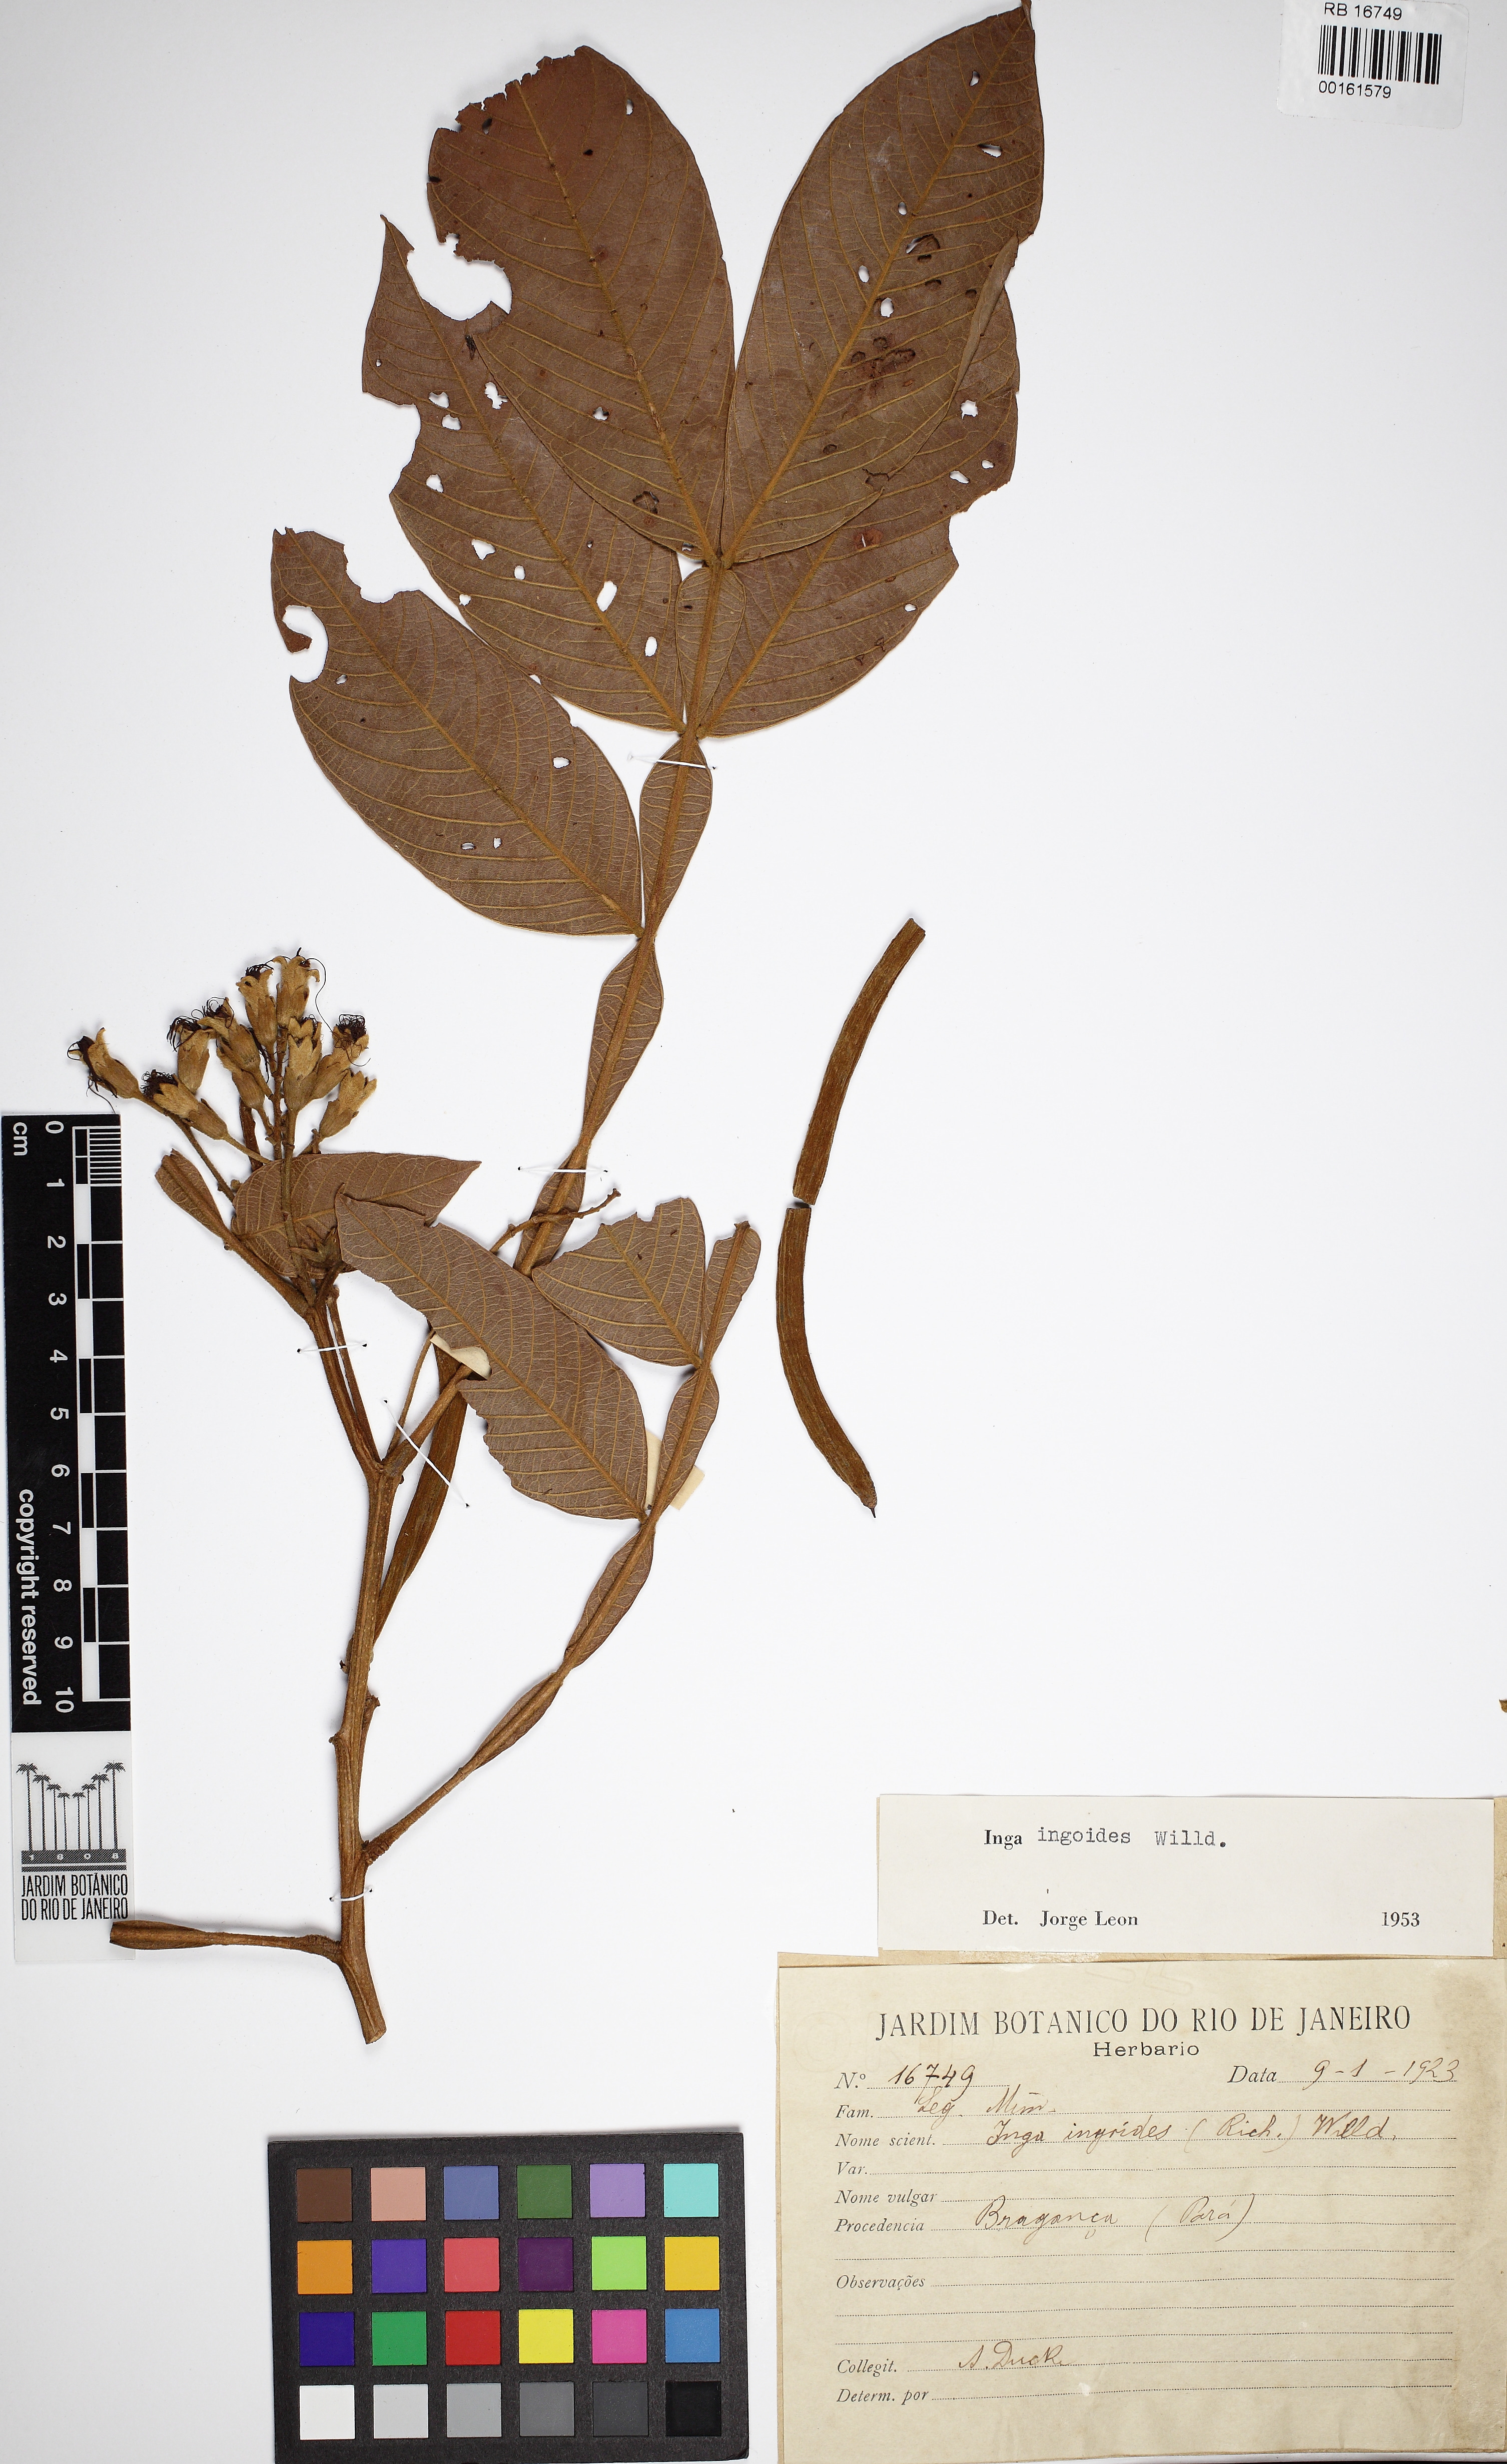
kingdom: Plantae
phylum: Tracheophyta
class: Magnoliopsida
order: Fabales
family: Fabaceae
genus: Inga
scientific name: Inga ingoides
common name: Spanish ash
